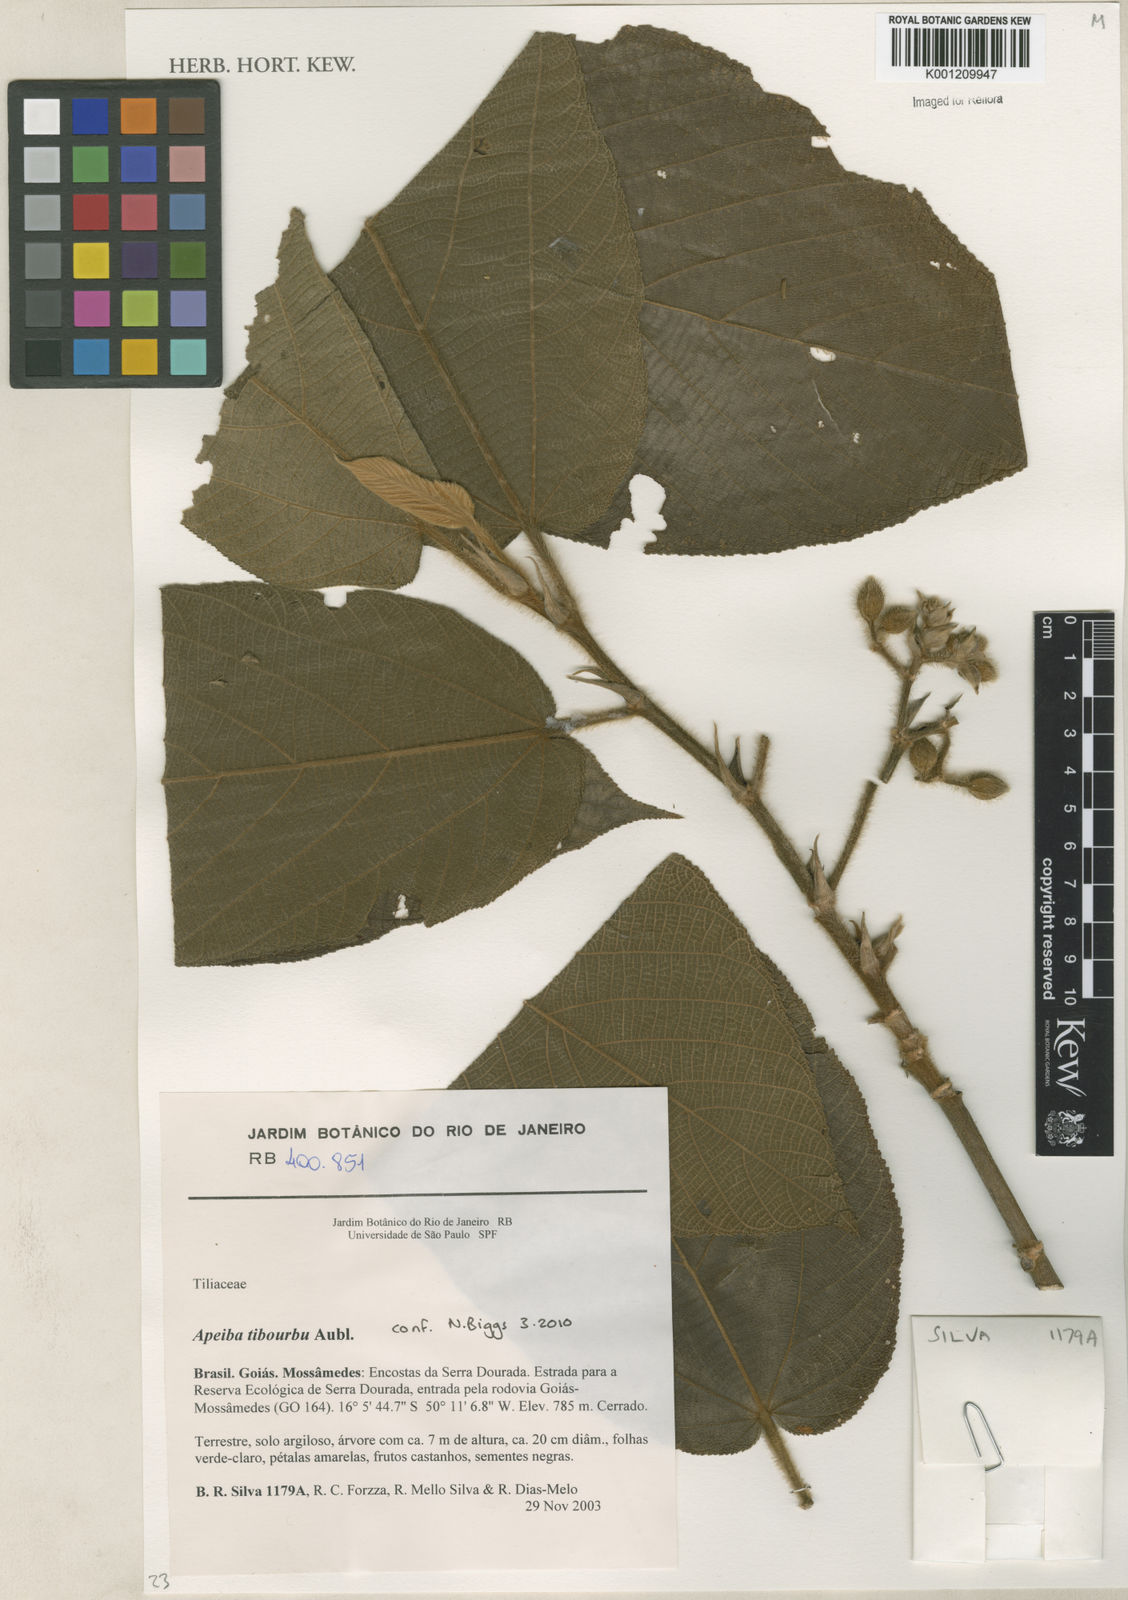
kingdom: Plantae
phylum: Tracheophyta
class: Magnoliopsida
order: Malvales
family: Malvaceae
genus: Apeiba
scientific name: Apeiba tibourbou
